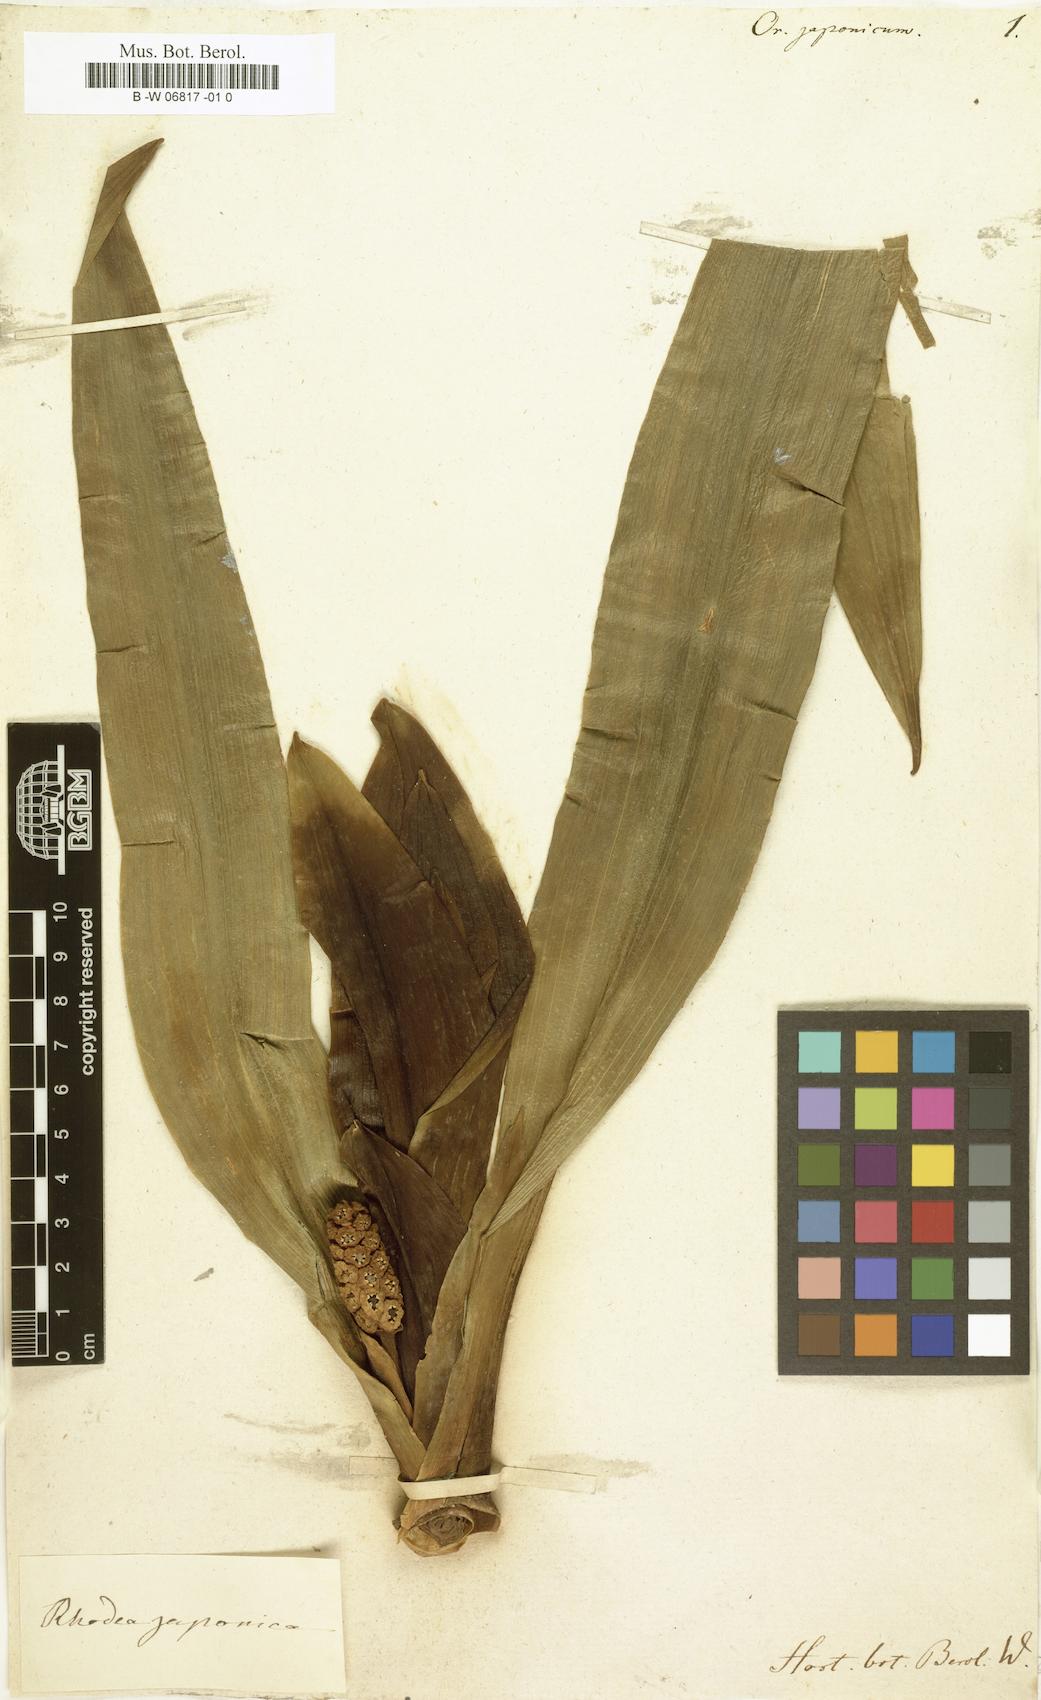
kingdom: Plantae
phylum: Tracheophyta
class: Liliopsida
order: Asparagales
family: Asparagaceae
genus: Rohdea
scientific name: Rohdea japonica
